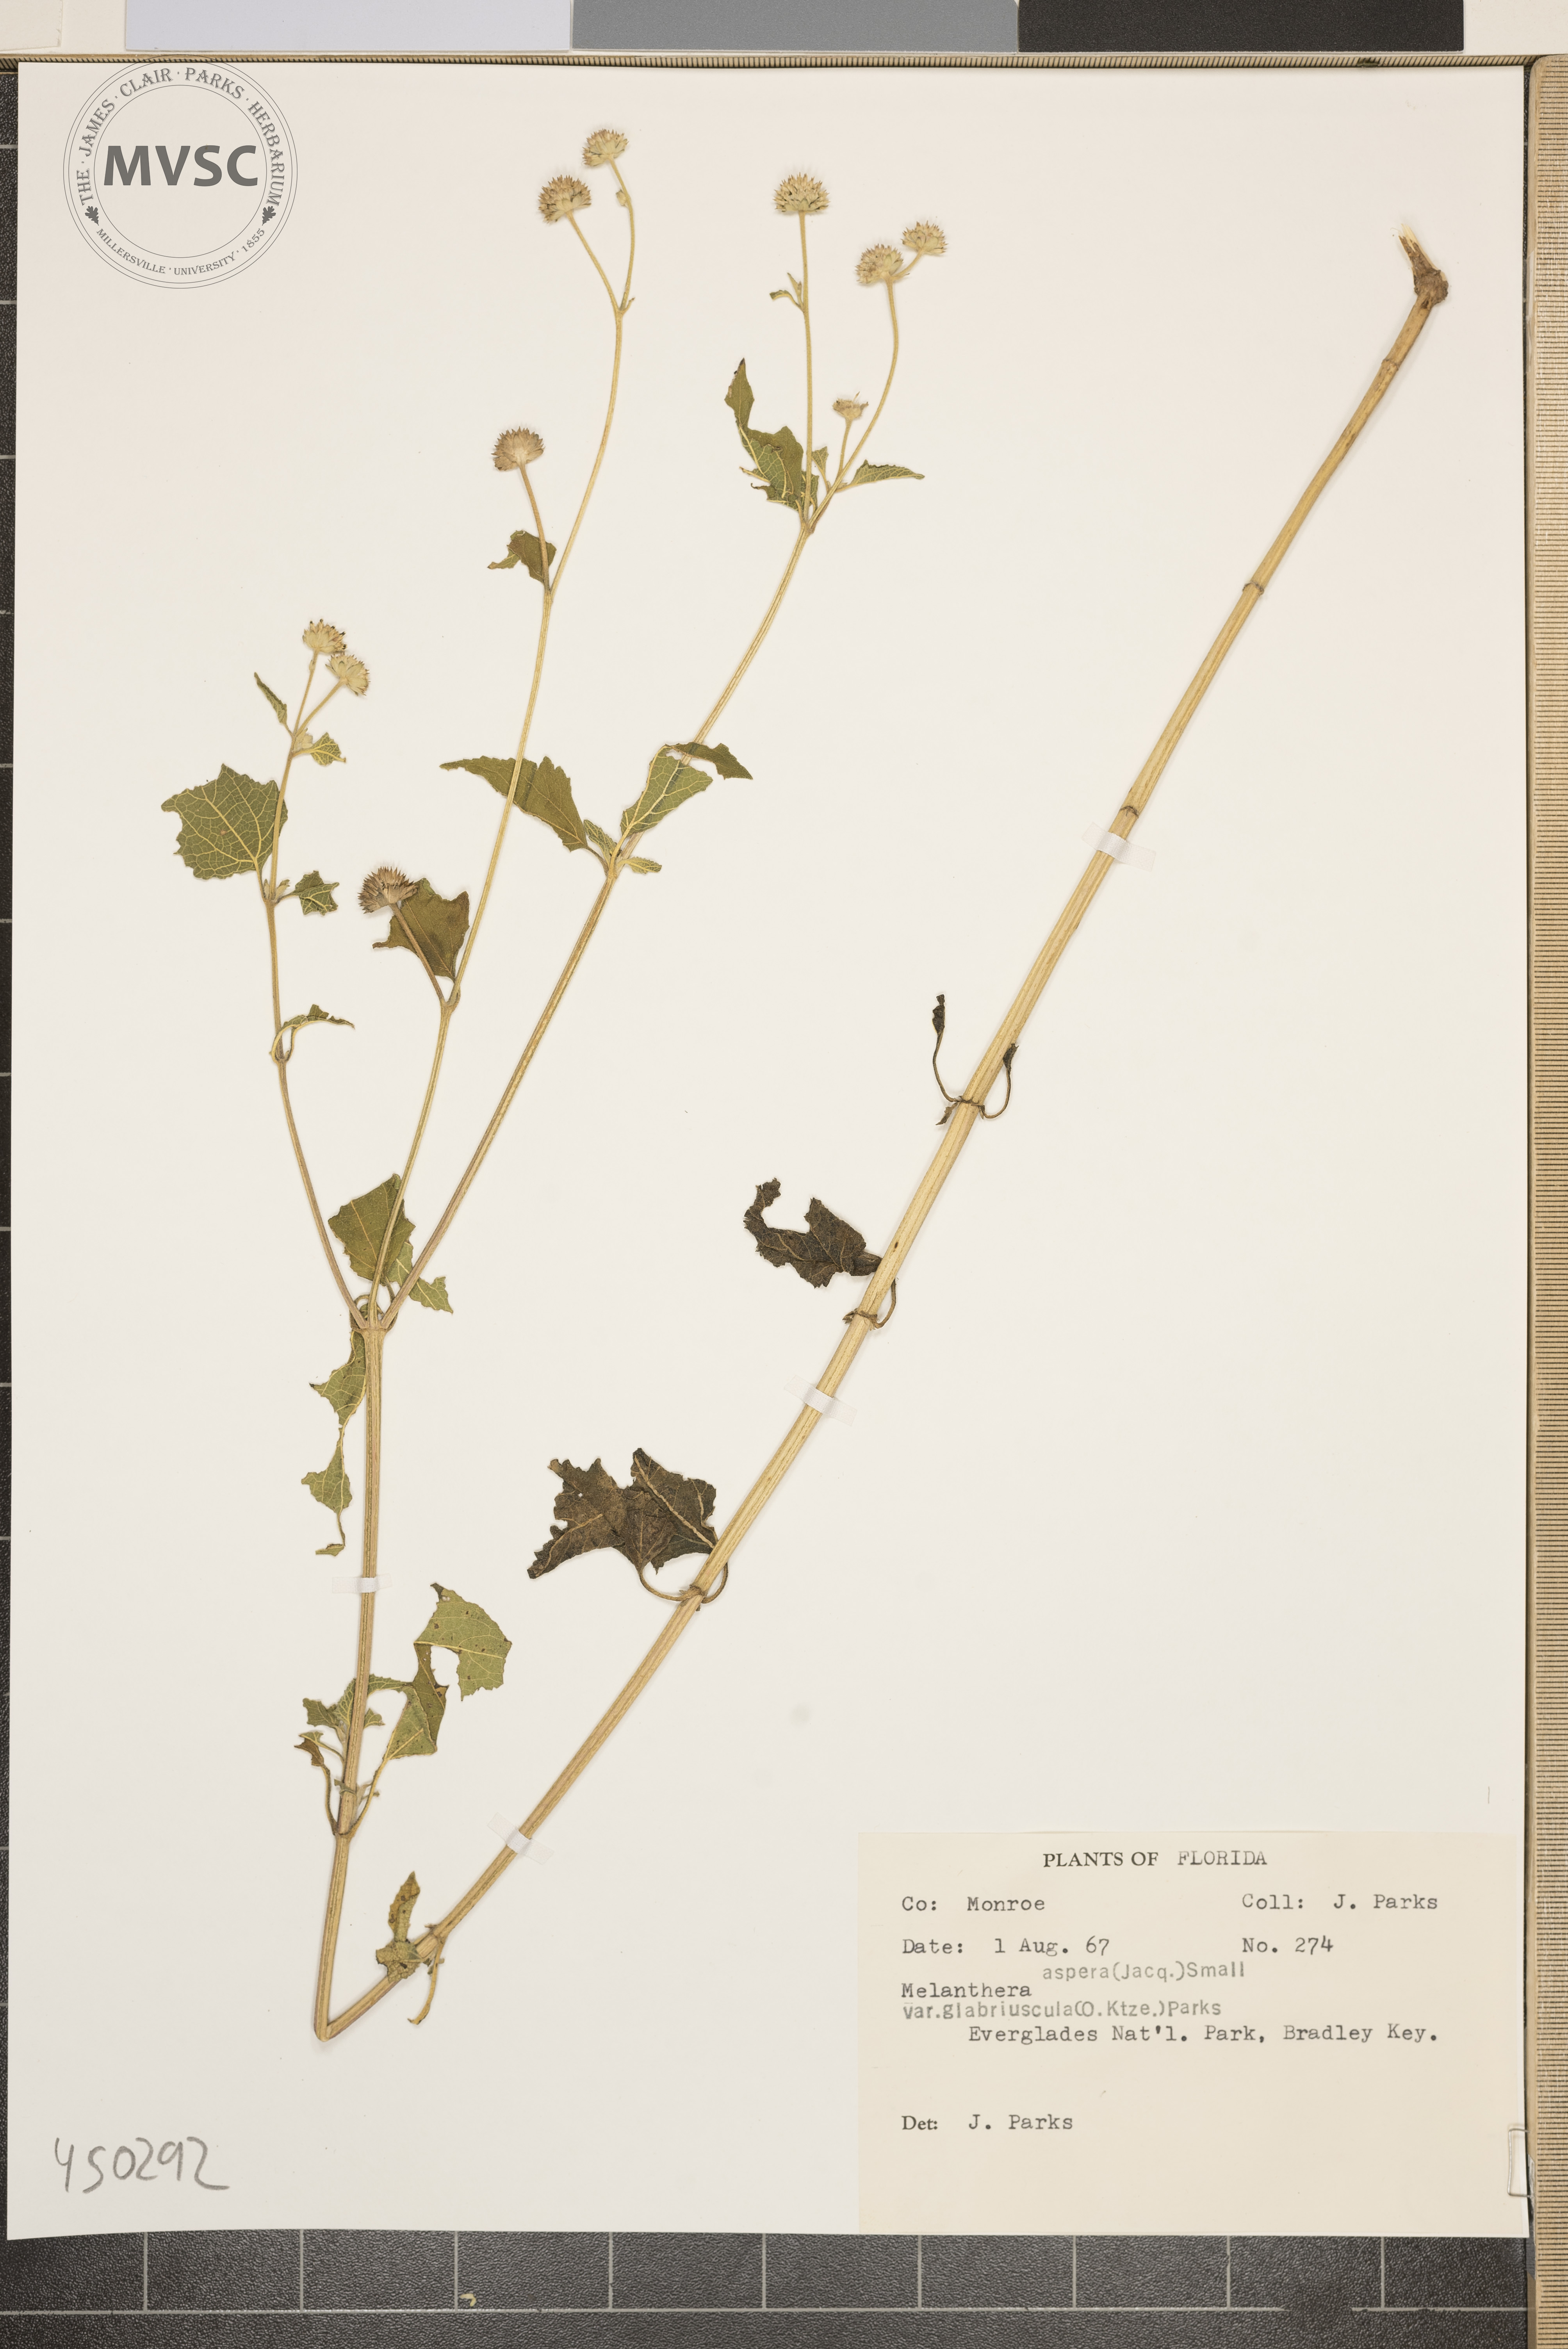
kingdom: Plantae
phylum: Tracheophyta
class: Magnoliopsida
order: Asterales
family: Asteraceae
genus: Melanthera
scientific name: Melanthera aspera
